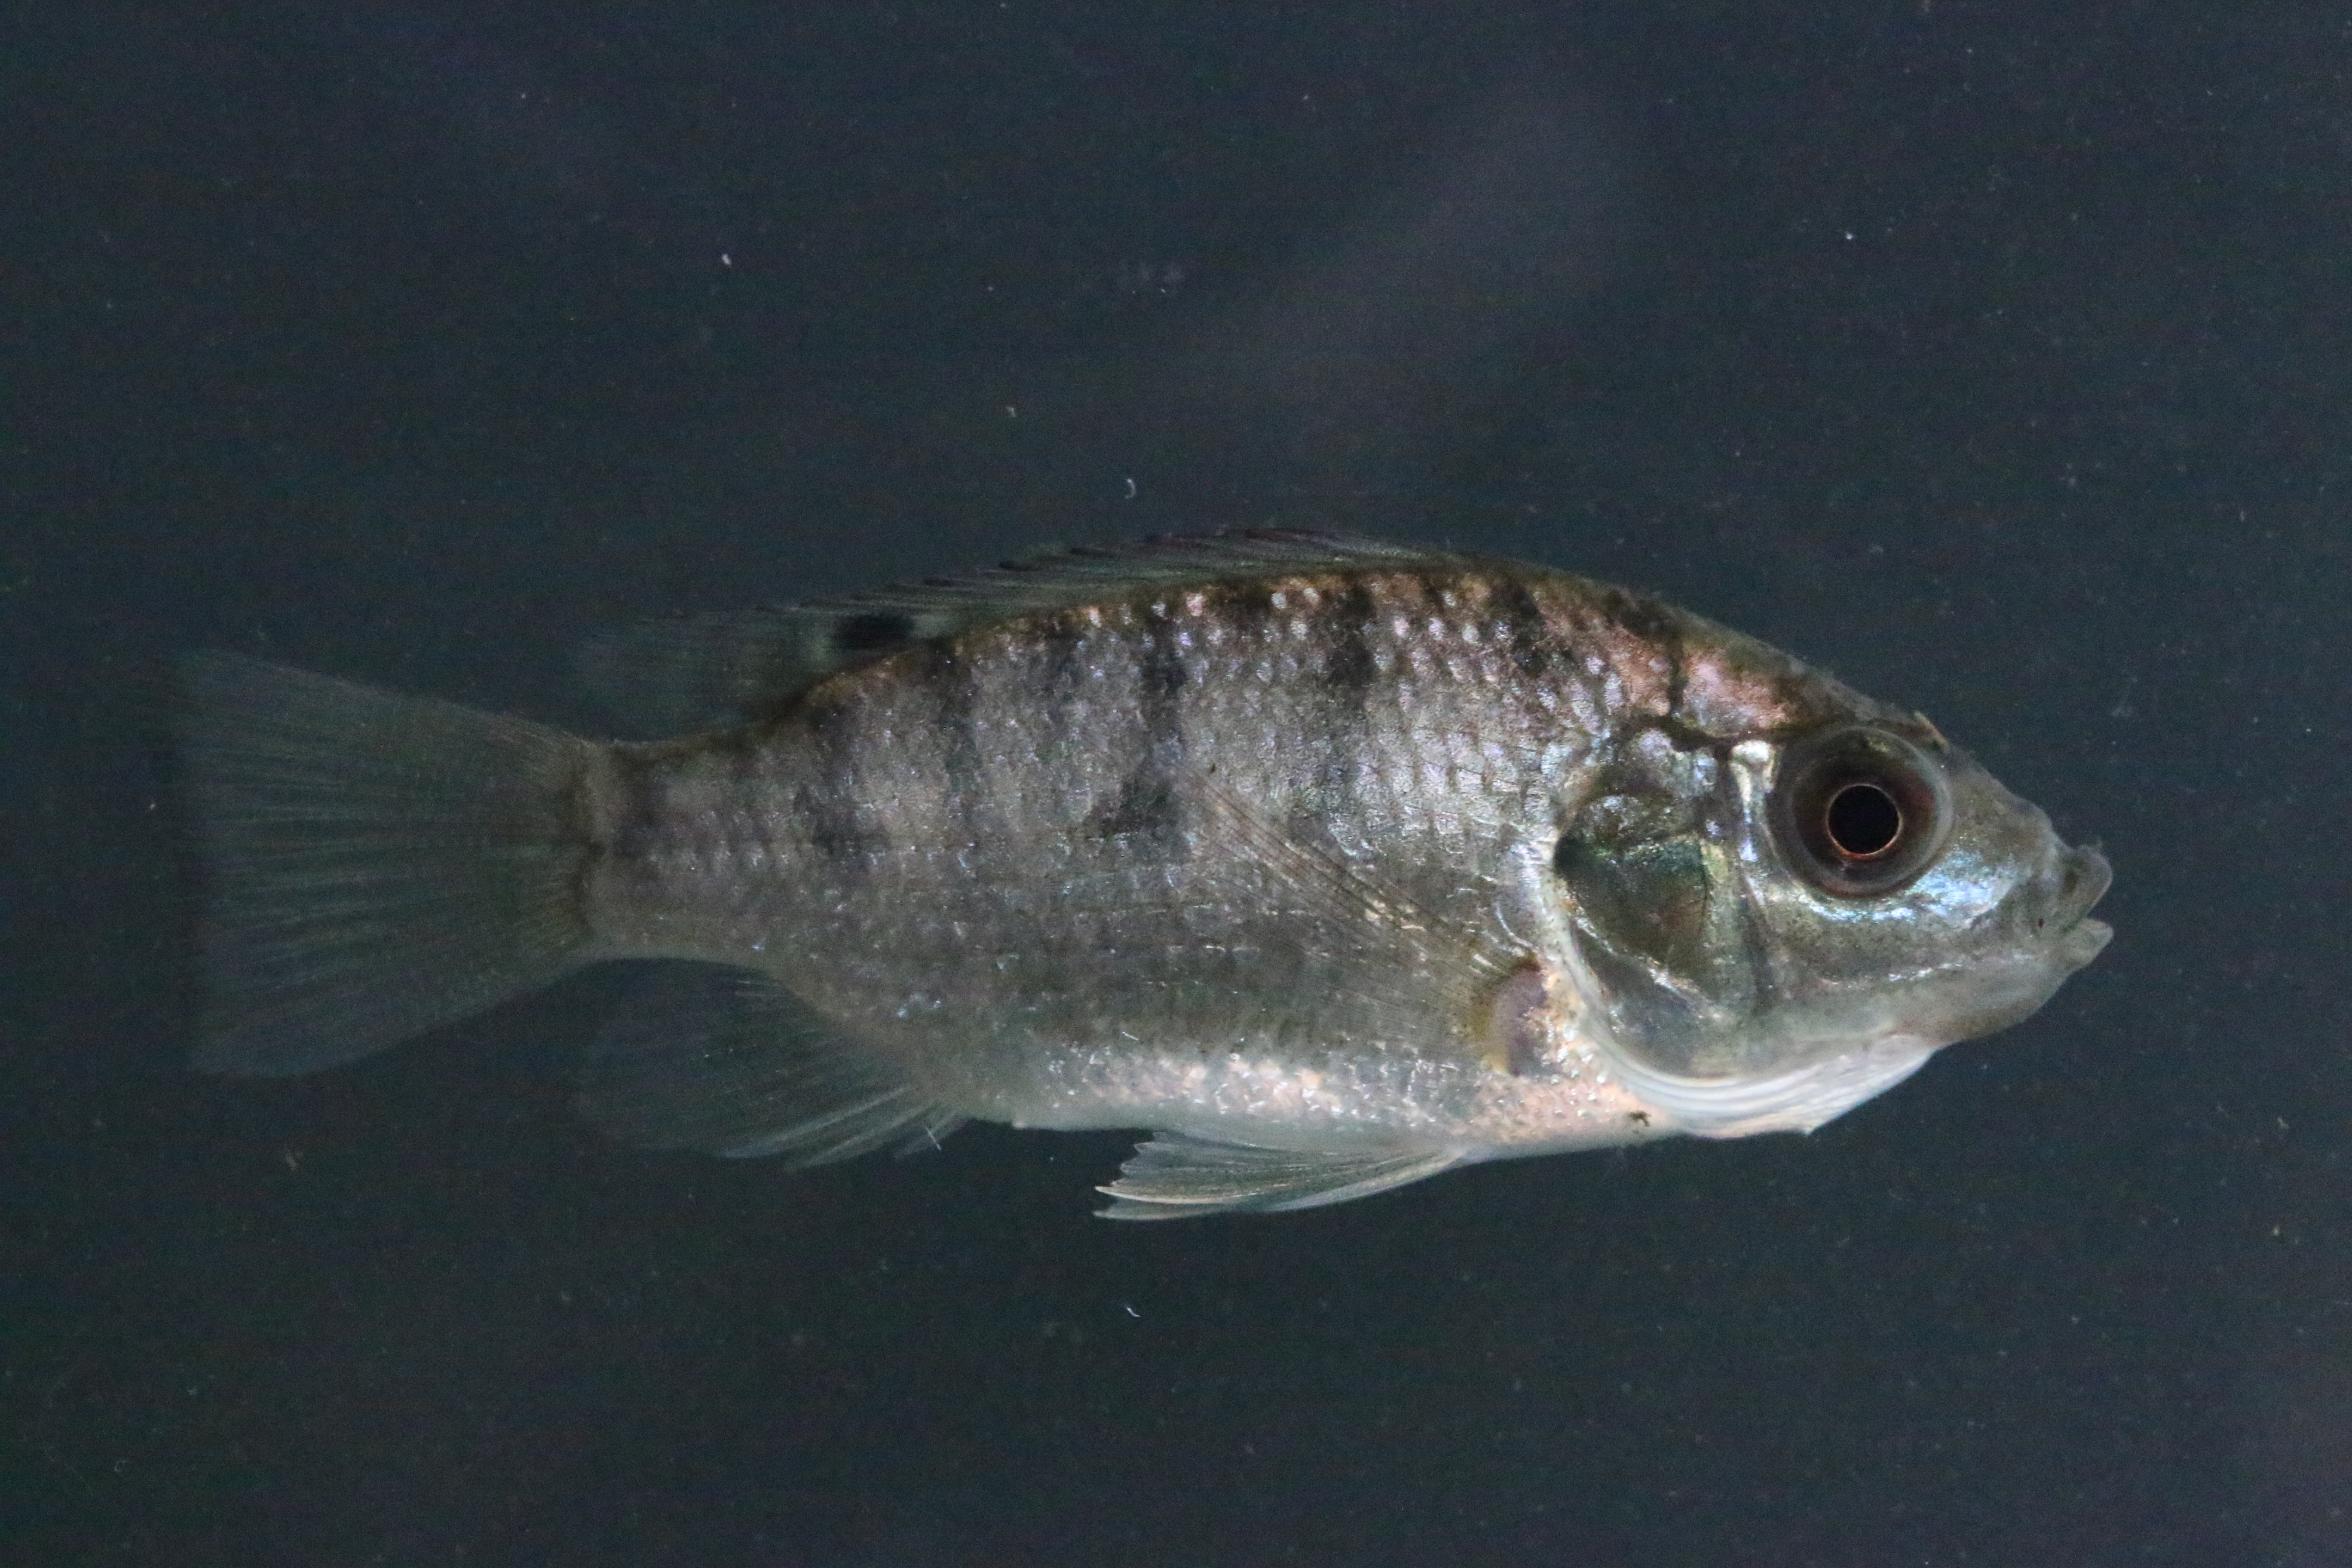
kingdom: Animalia
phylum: Chordata
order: Perciformes
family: Cichlidae
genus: Oreochromis
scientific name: Oreochromis mossambicus
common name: Mozambique tilapia
